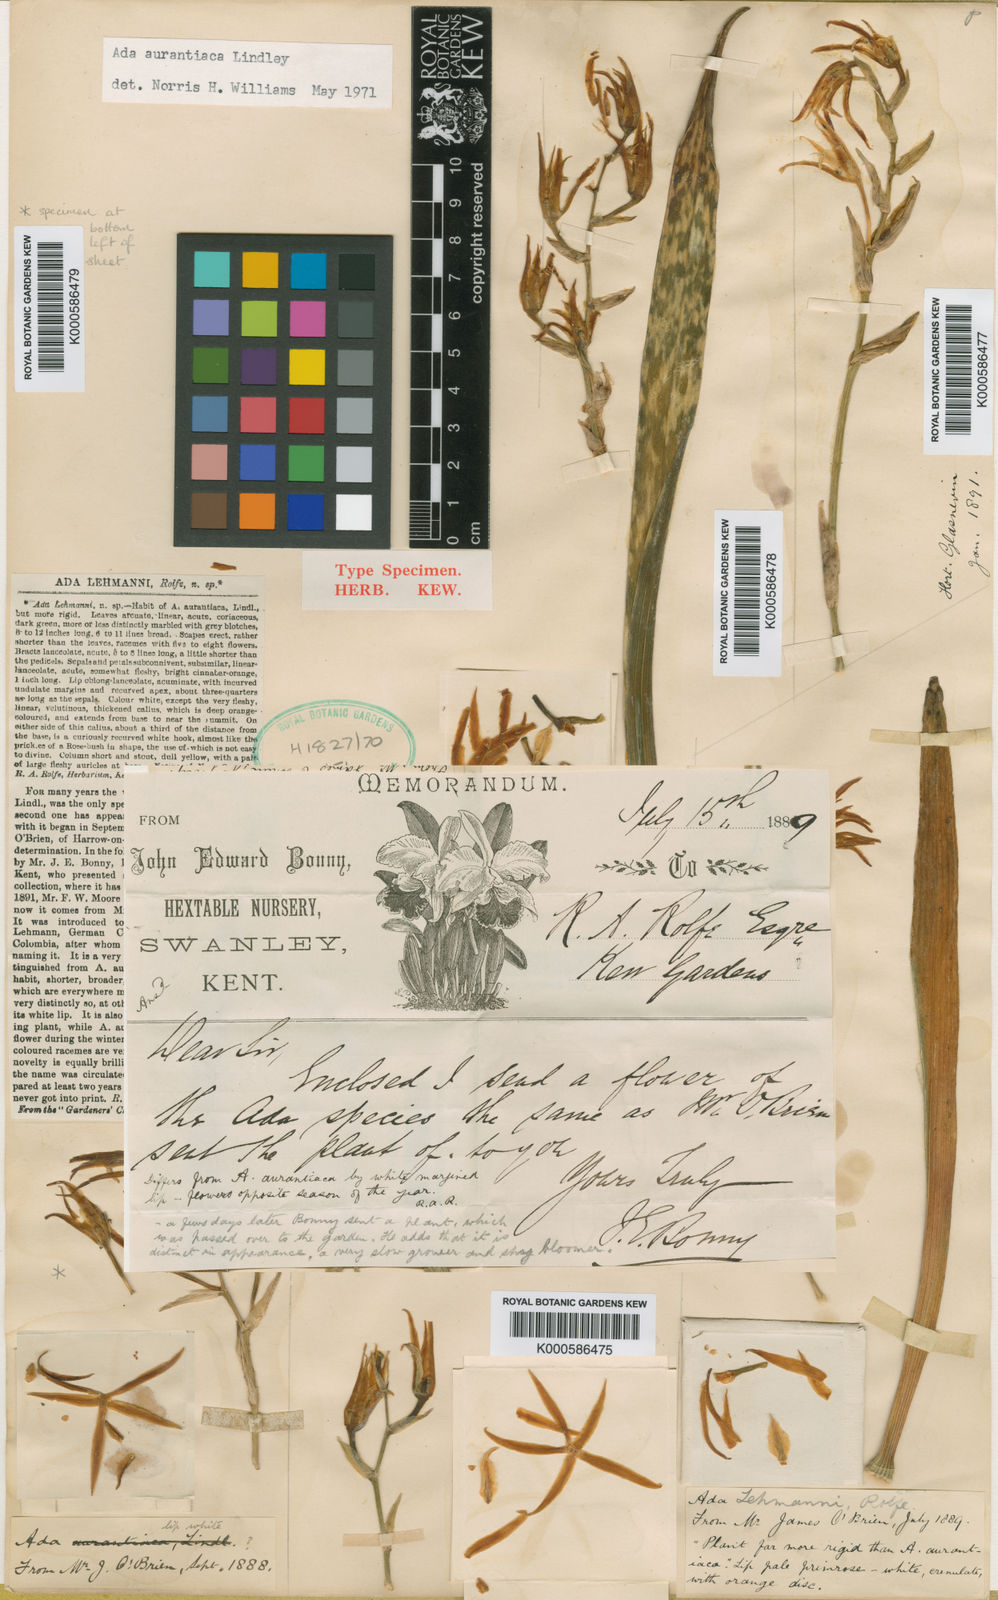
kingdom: Plantae
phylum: Tracheophyta
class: Liliopsida
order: Asparagales
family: Orchidaceae
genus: Brassia
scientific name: Brassia aurantiaca
